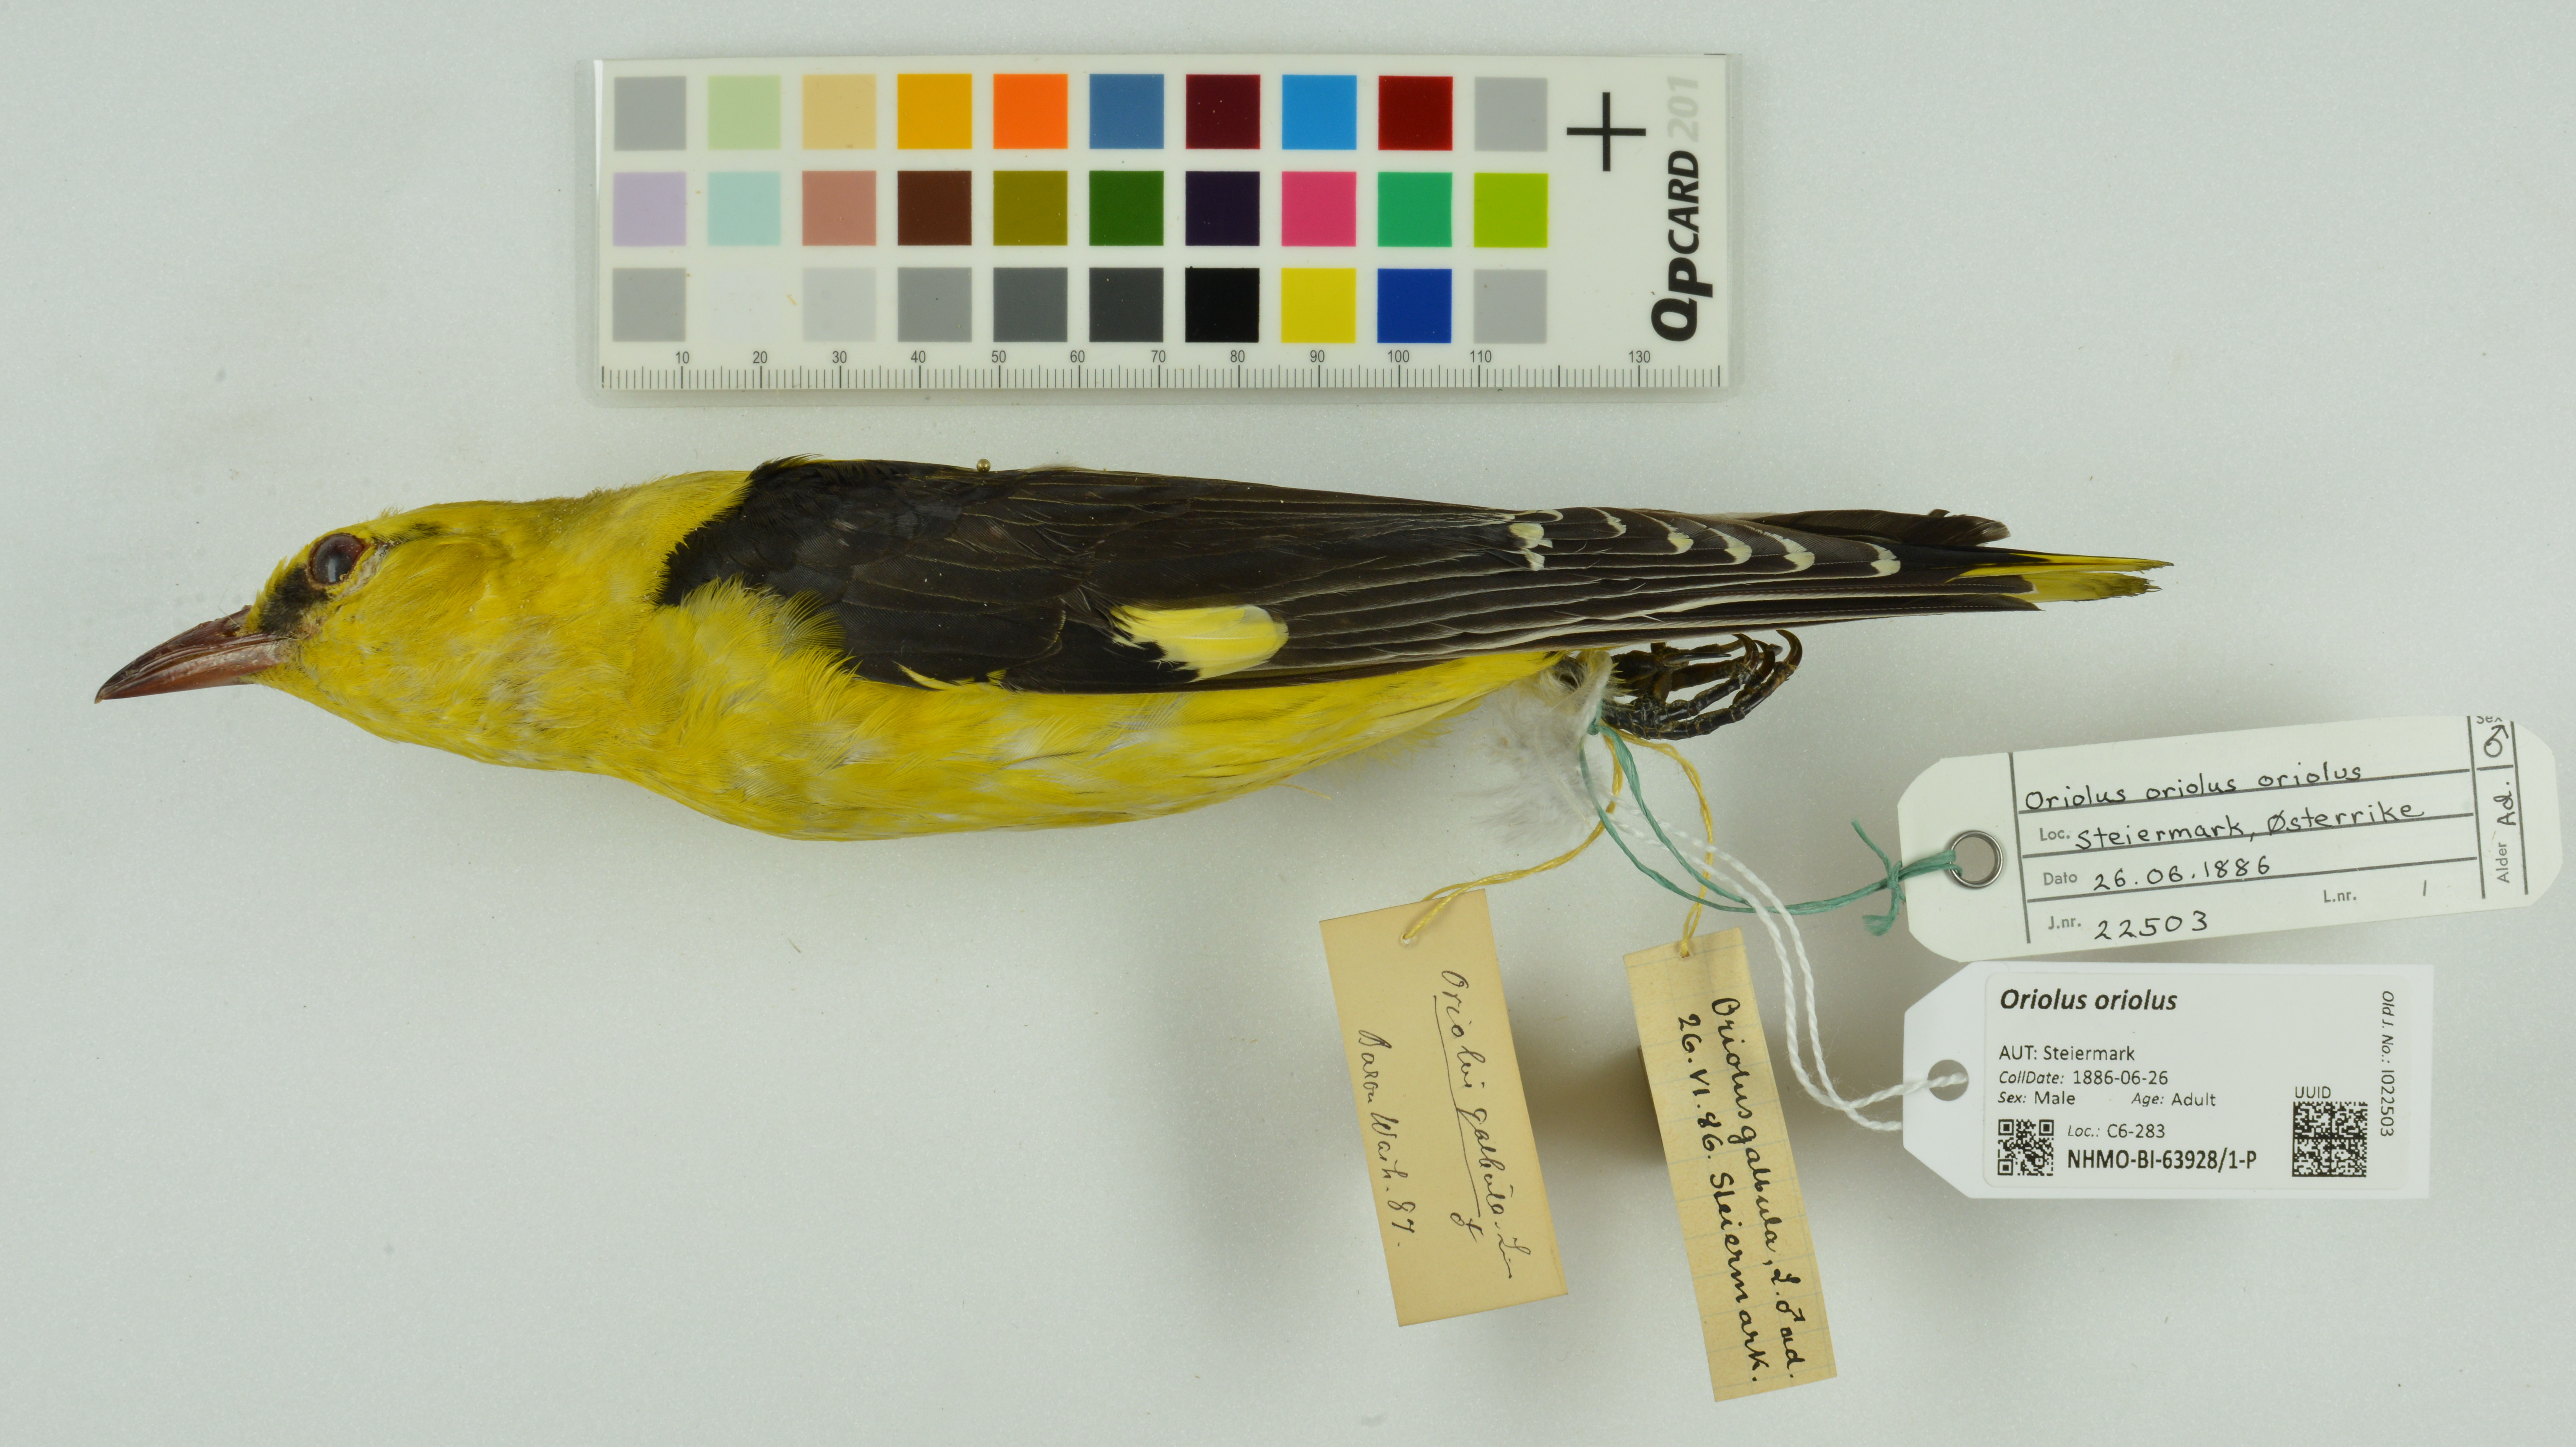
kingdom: Animalia
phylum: Chordata
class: Aves
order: Passeriformes
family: Oriolidae
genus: Oriolus
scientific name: Oriolus oriolus
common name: Eurasian golden oriole
